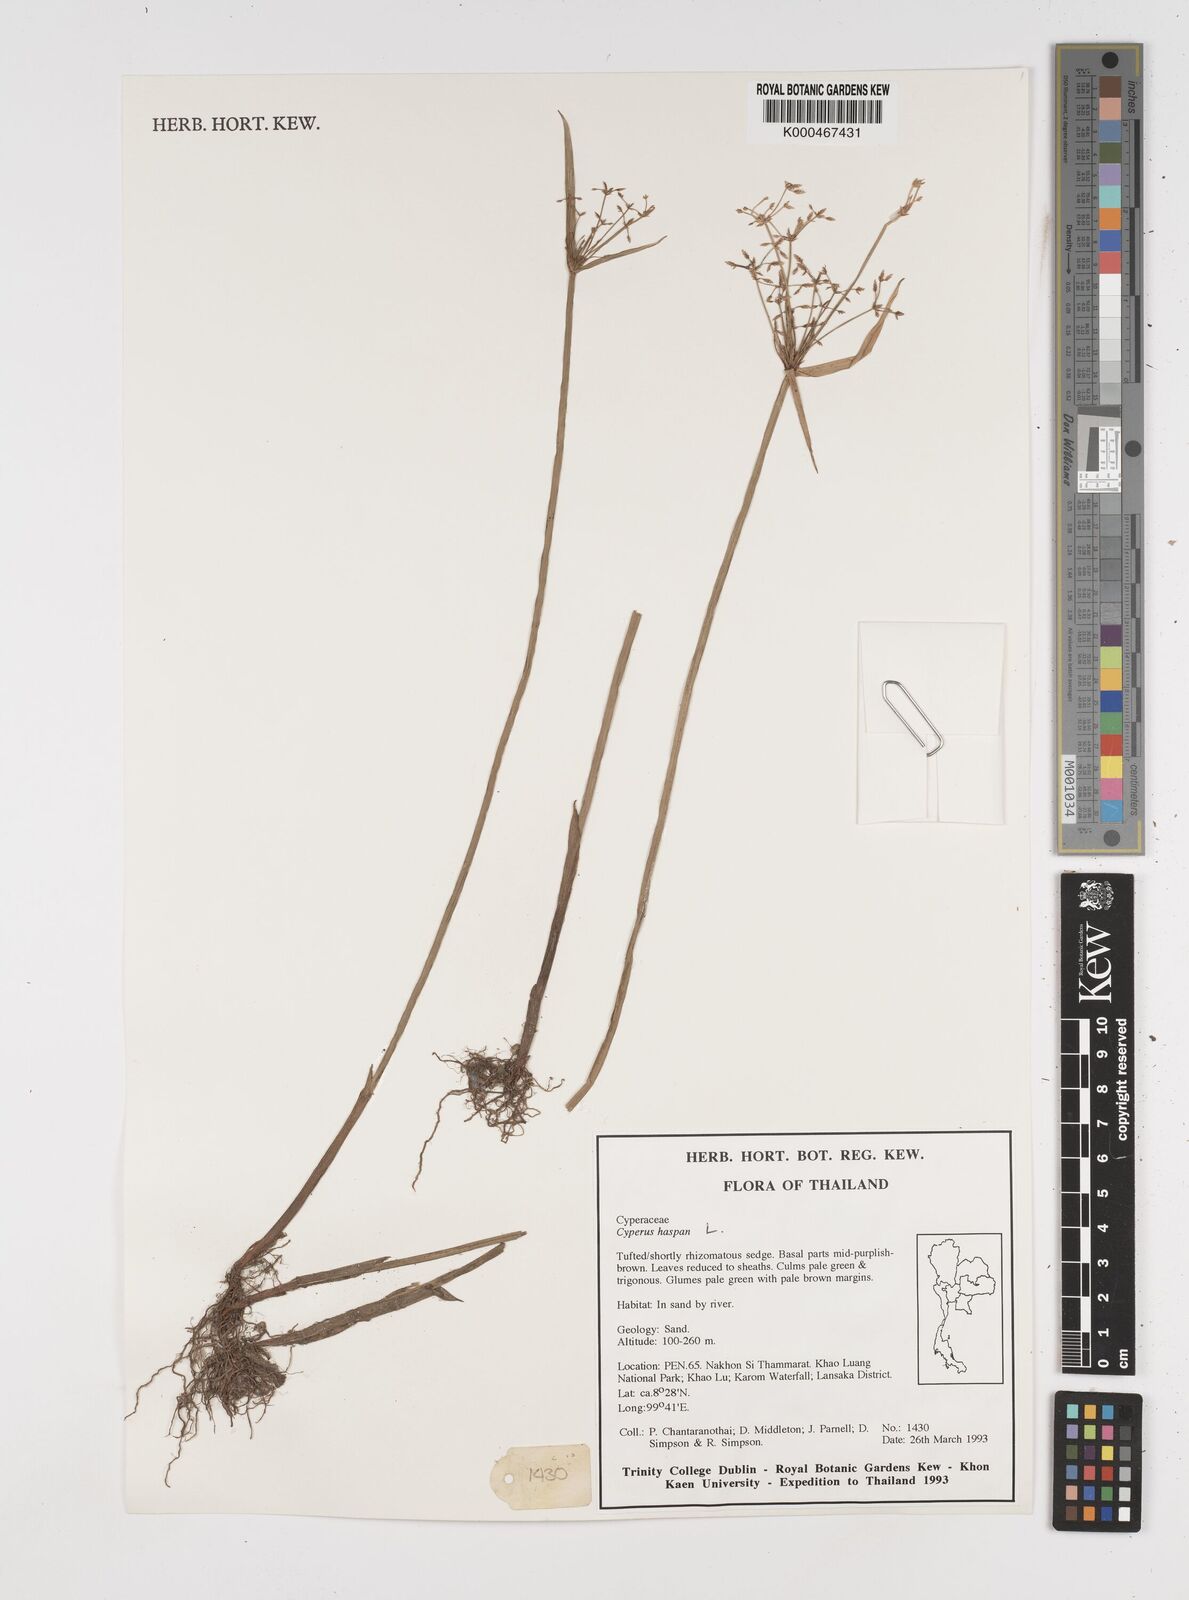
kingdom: Plantae
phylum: Tracheophyta
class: Liliopsida
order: Poales
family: Cyperaceae
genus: Cyperus
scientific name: Cyperus
